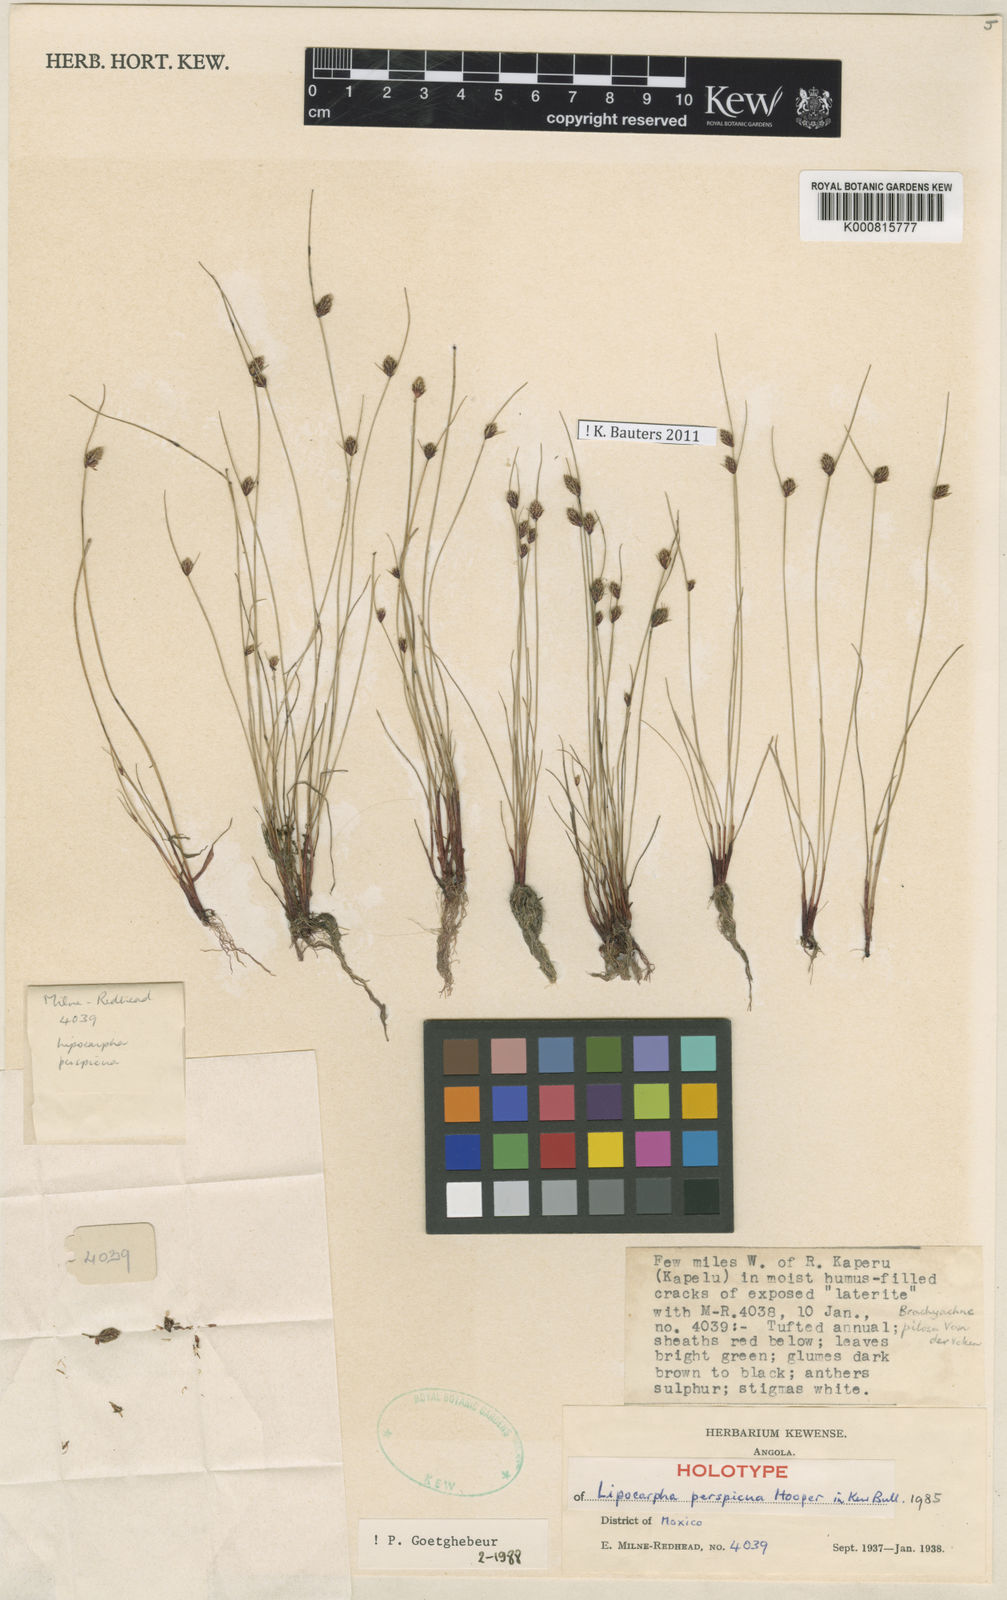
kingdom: Plantae
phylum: Tracheophyta
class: Liliopsida
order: Poales
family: Cyperaceae
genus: Cyperus
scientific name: Cyperus perspicuus
